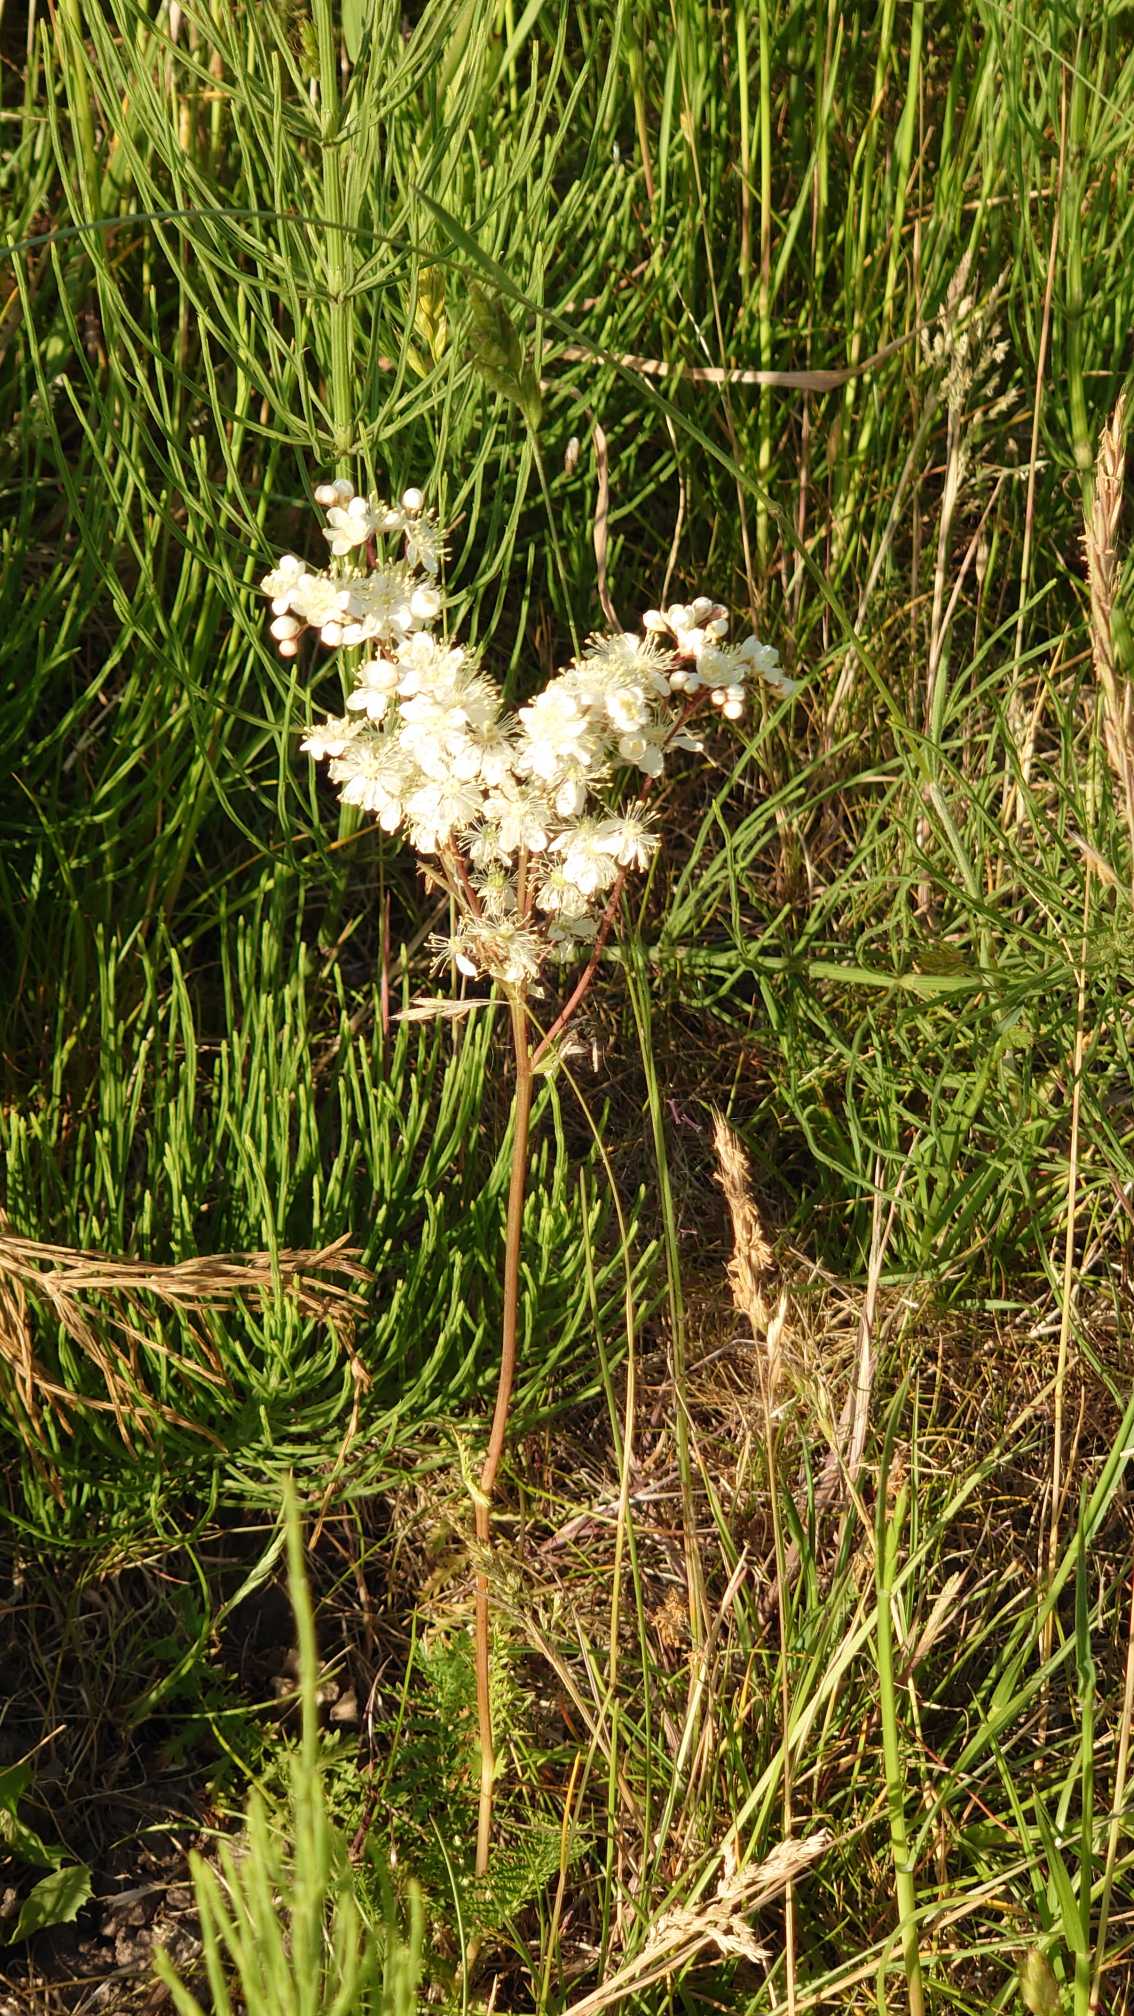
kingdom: Plantae
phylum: Tracheophyta
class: Magnoliopsida
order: Rosales
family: Rosaceae
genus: Filipendula
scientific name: Filipendula vulgaris
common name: Knoldet mjødurt
